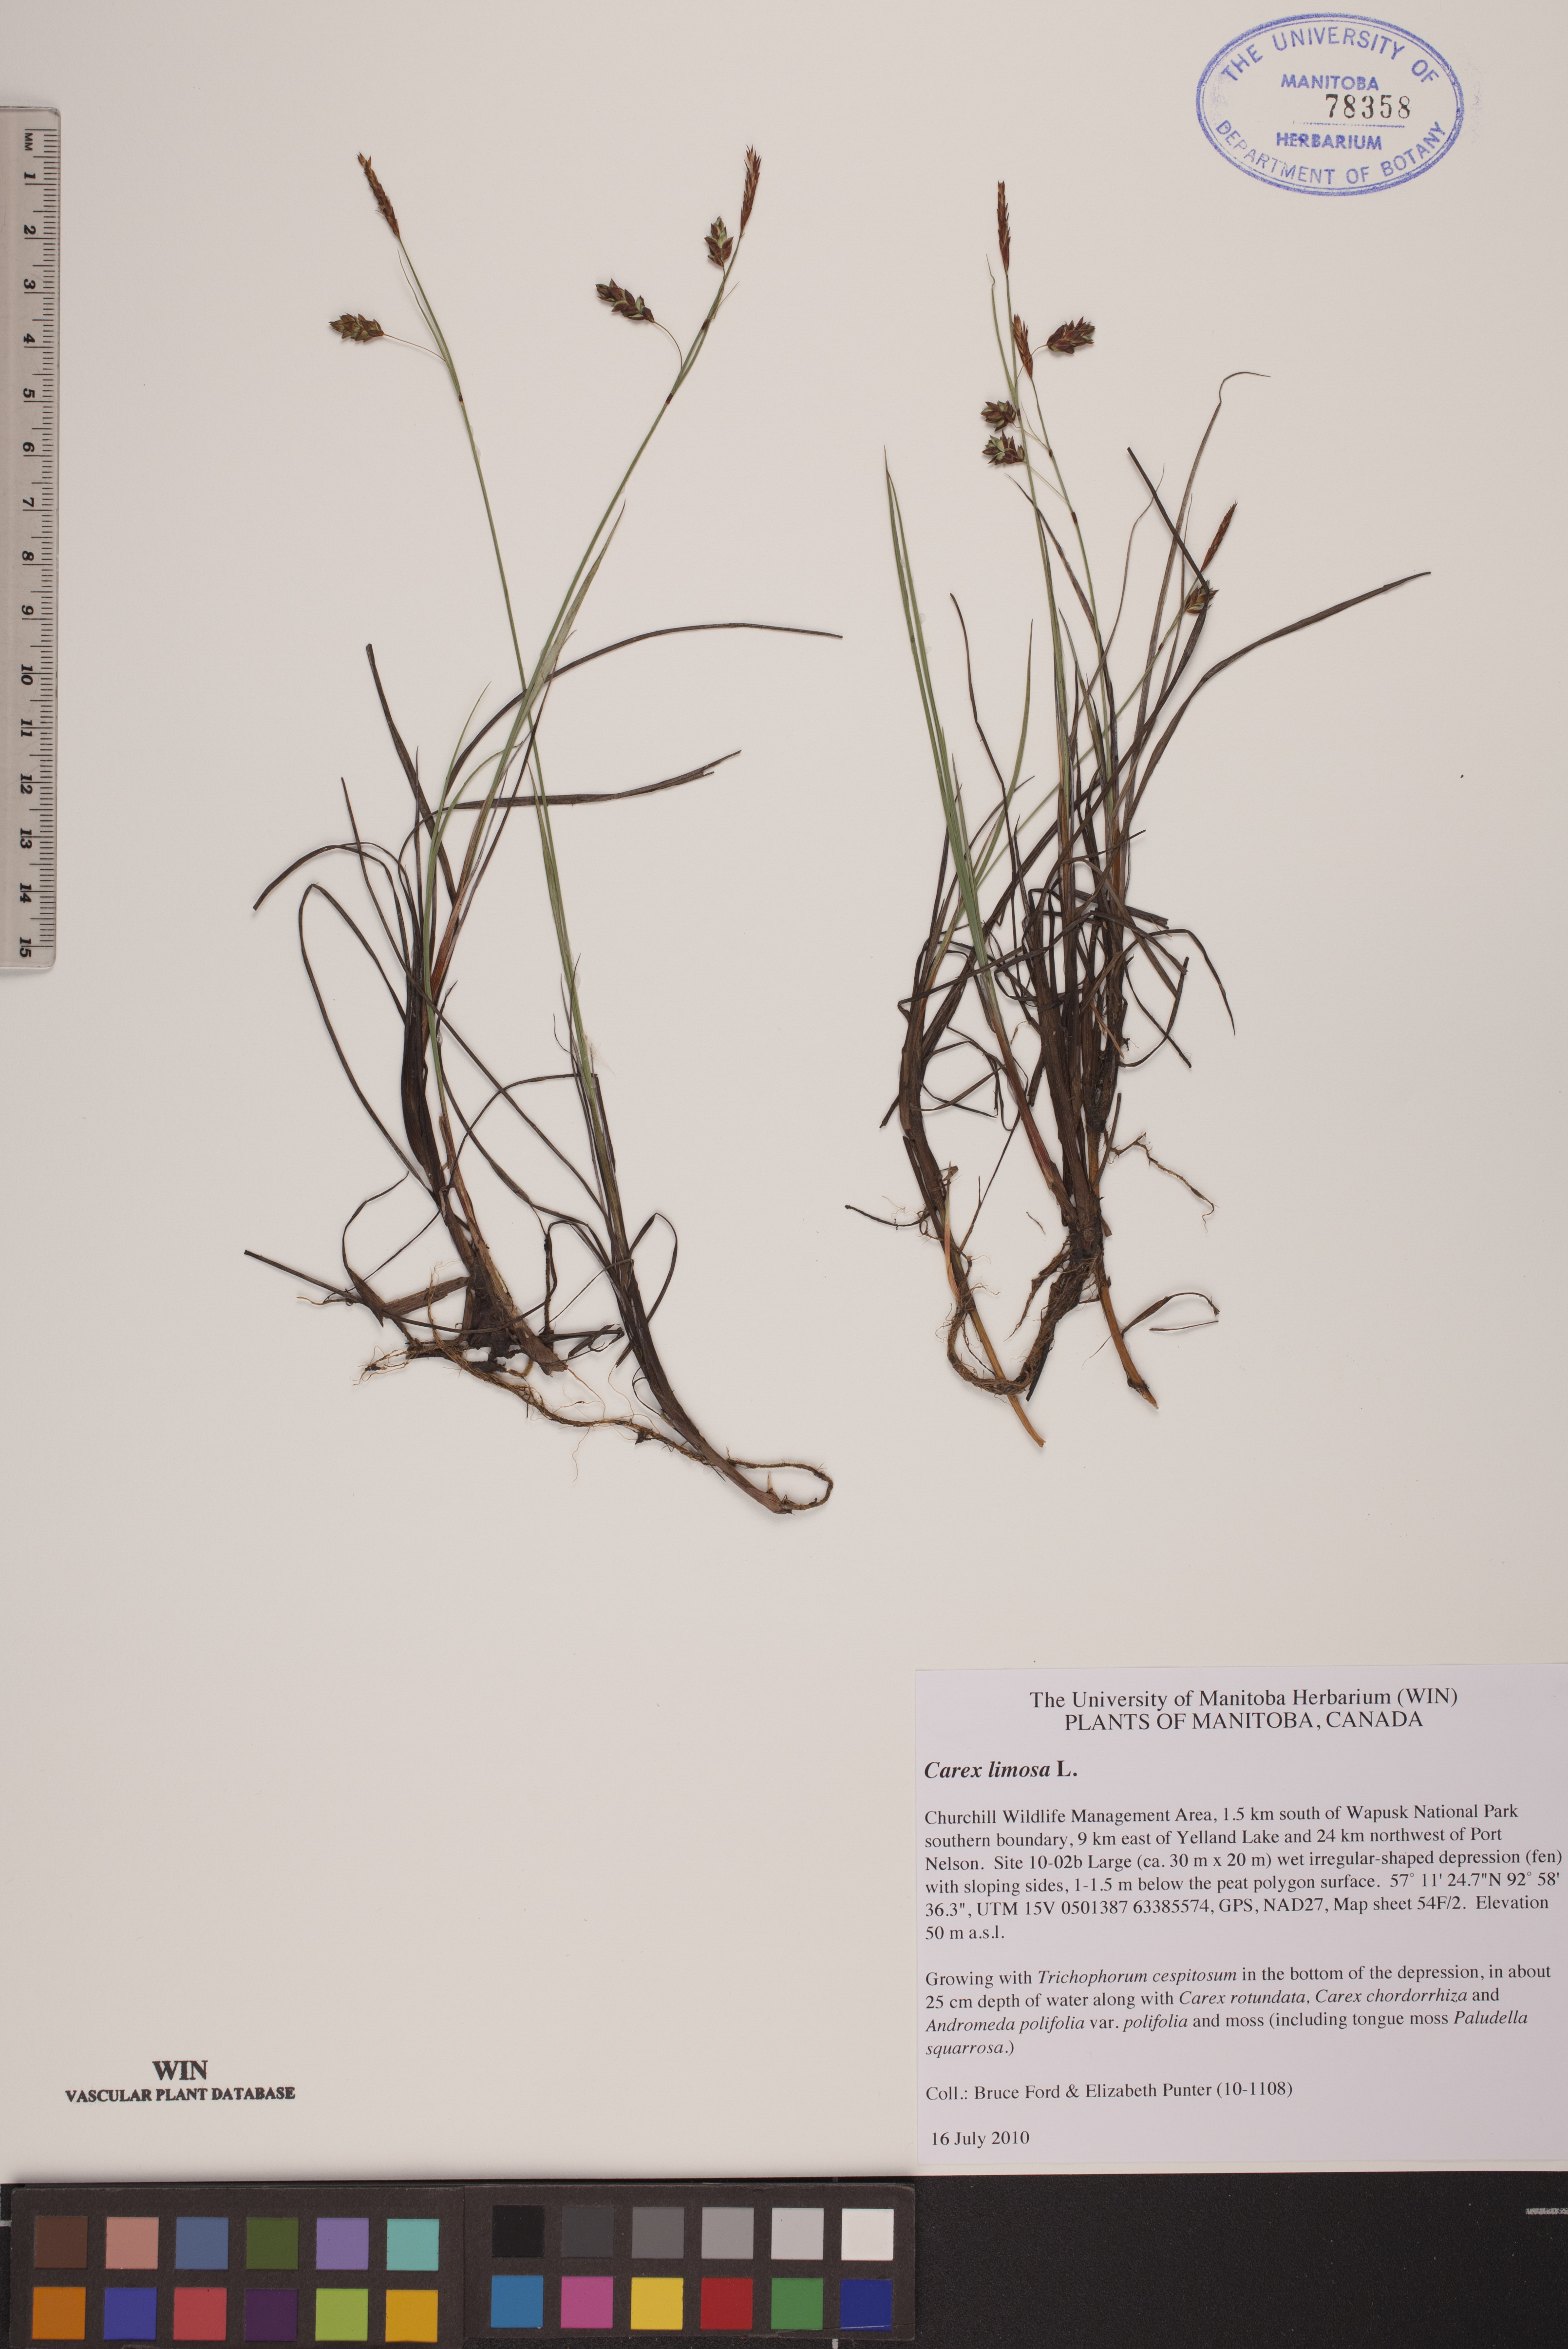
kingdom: Plantae
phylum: Tracheophyta
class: Liliopsida
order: Poales
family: Cyperaceae
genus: Carex
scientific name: Carex limosa
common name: Bog sedge
